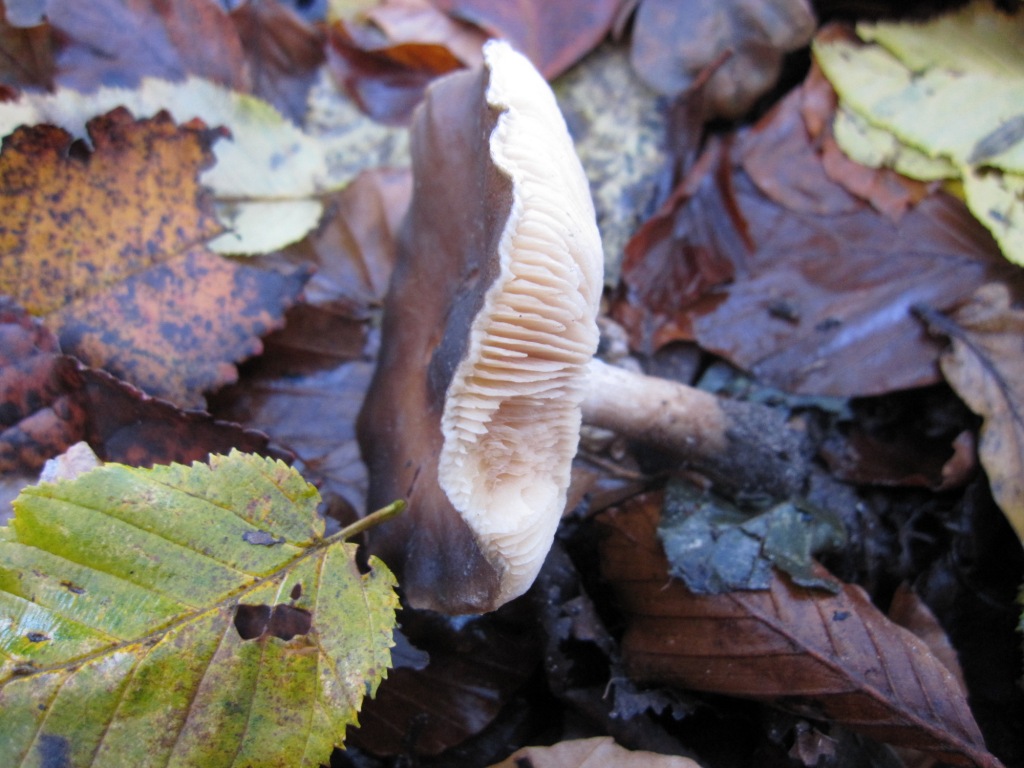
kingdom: Fungi
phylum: Basidiomycota
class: Agaricomycetes
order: Agaricales
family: Tricholomataceae
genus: Melanoleuca
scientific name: Melanoleuca cognata
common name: gyldengrå munkehat
